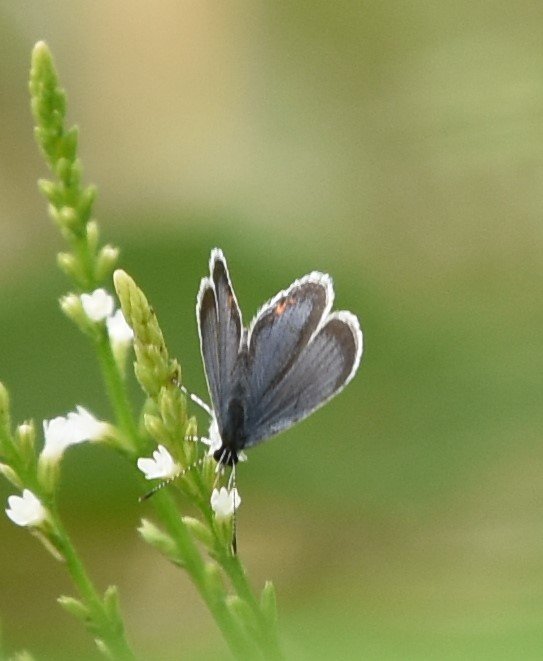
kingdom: Animalia
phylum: Arthropoda
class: Insecta
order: Lepidoptera
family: Lycaenidae
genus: Elkalyce
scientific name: Elkalyce comyntas
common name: Eastern Tailed-Blue
